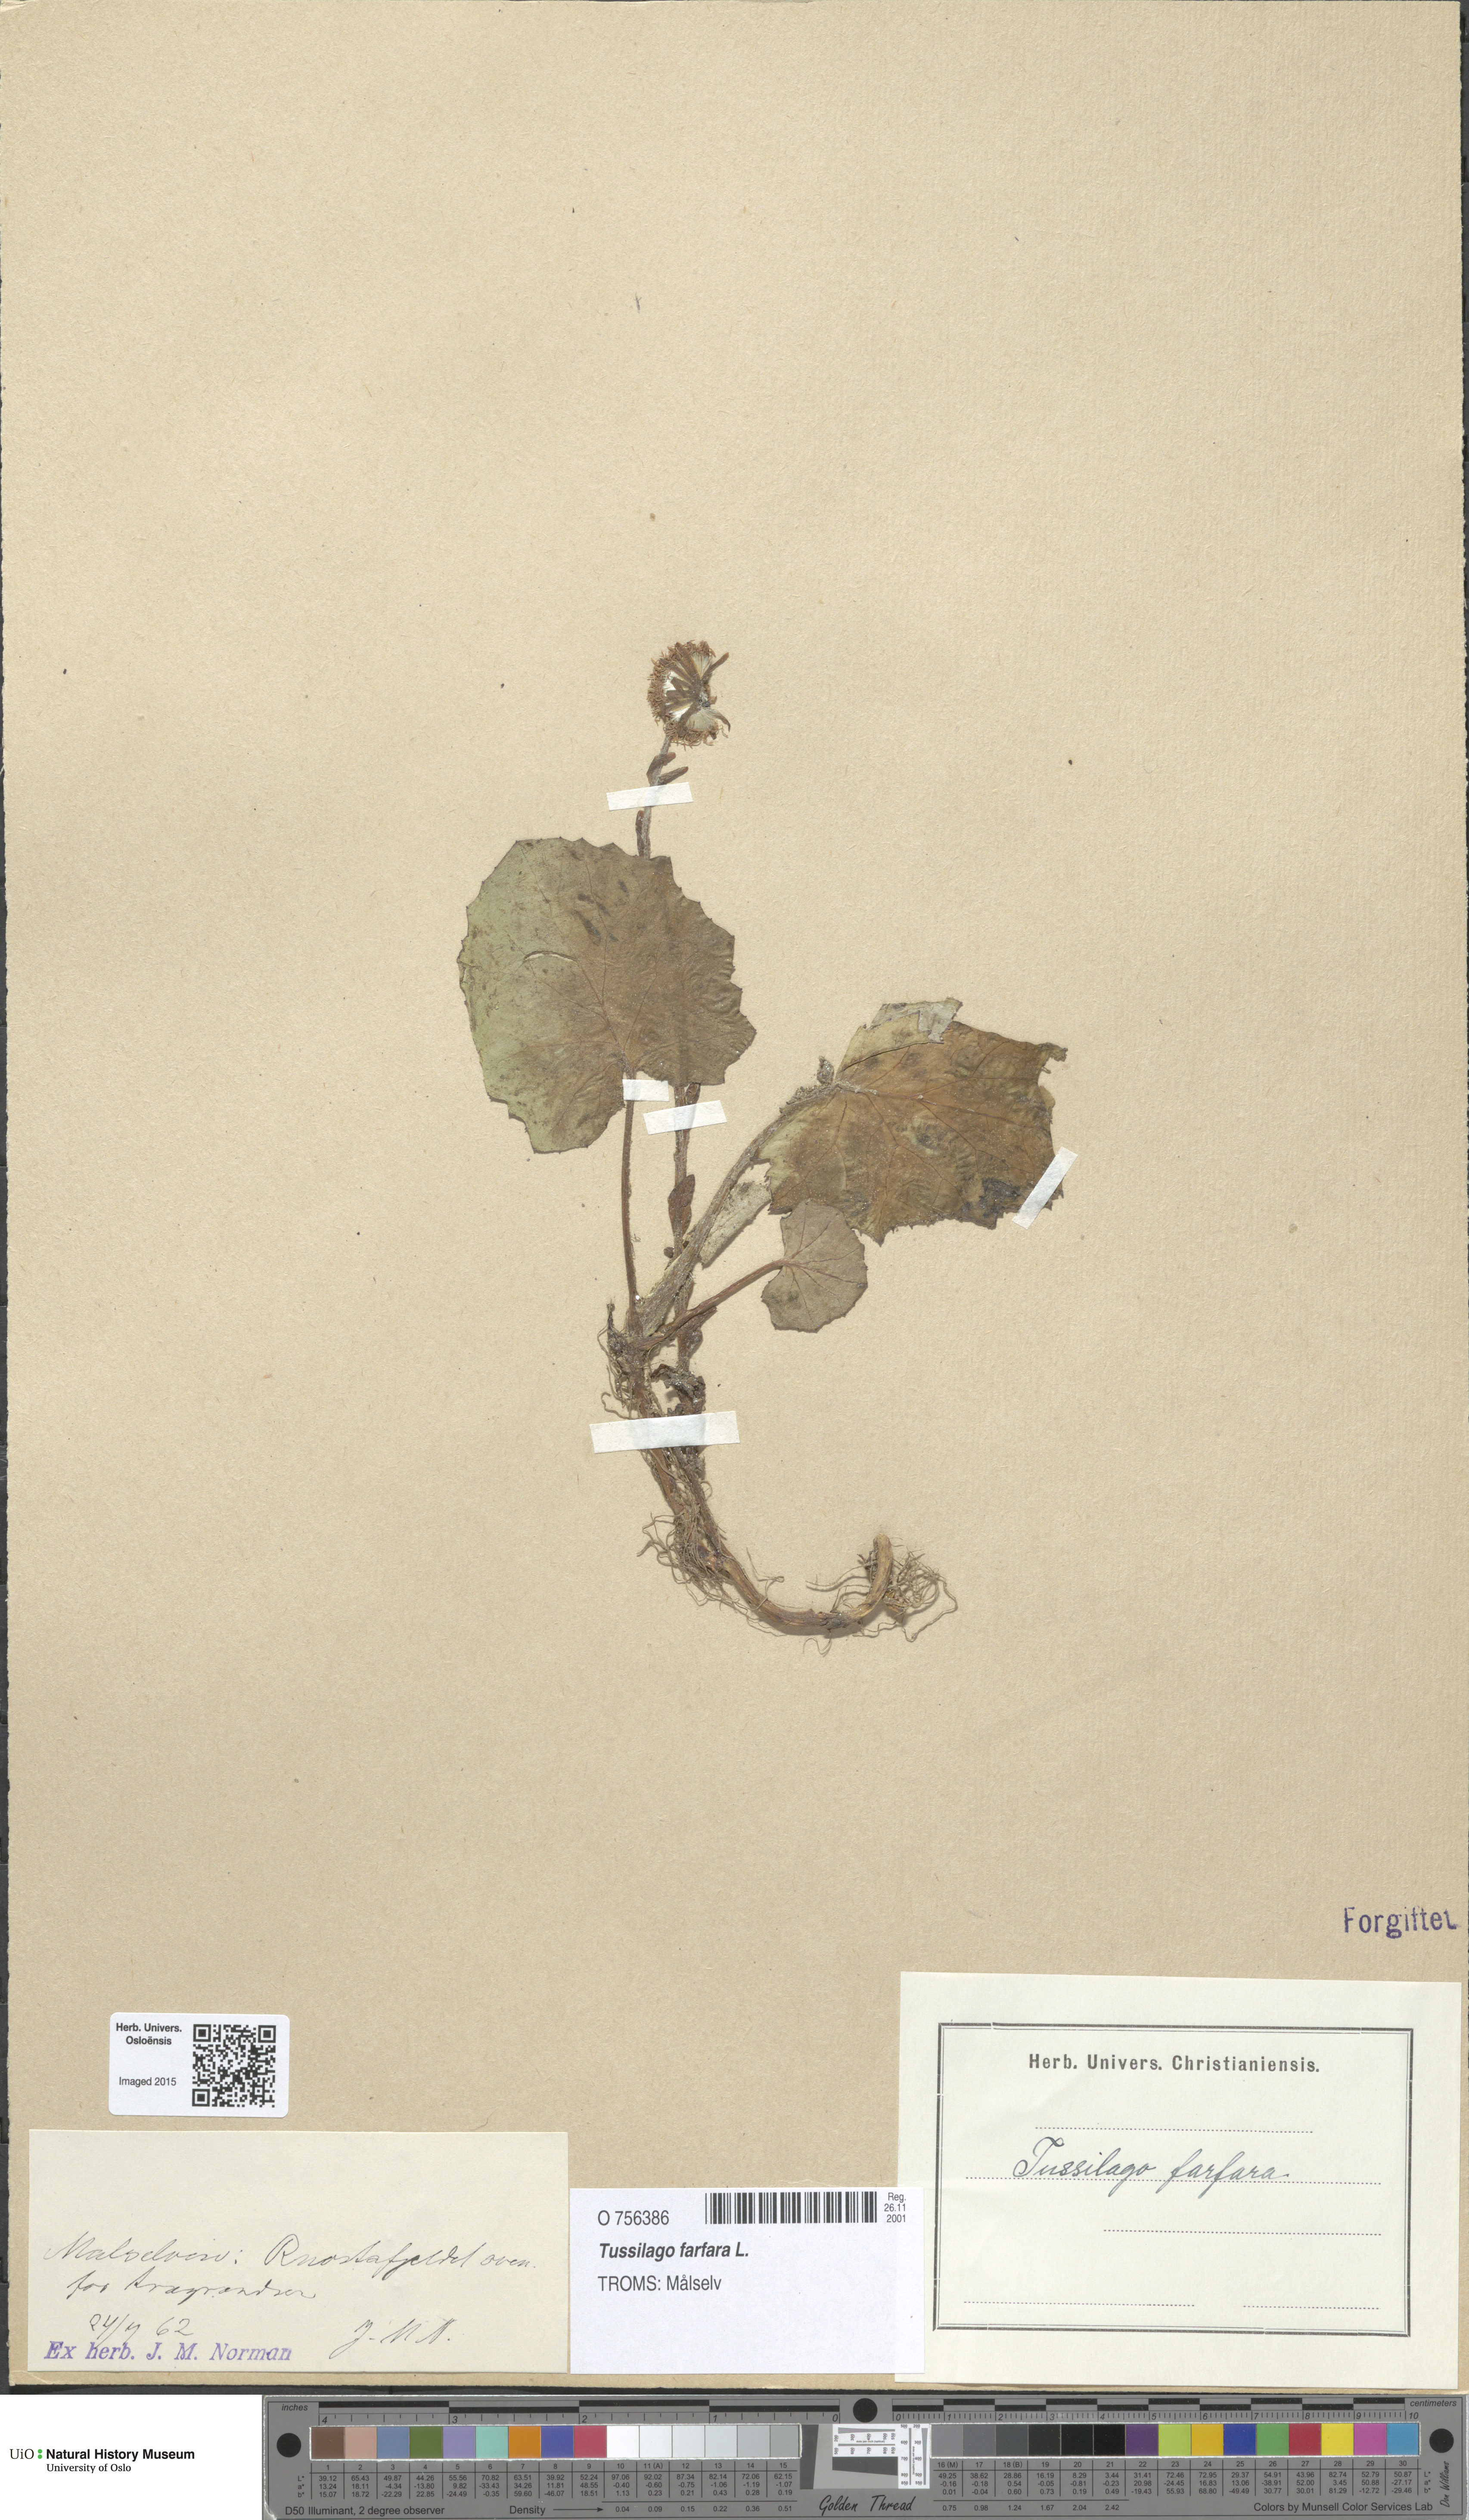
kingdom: Plantae
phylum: Tracheophyta
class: Magnoliopsida
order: Asterales
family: Asteraceae
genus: Tussilago
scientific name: Tussilago farfara
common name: Coltsfoot
